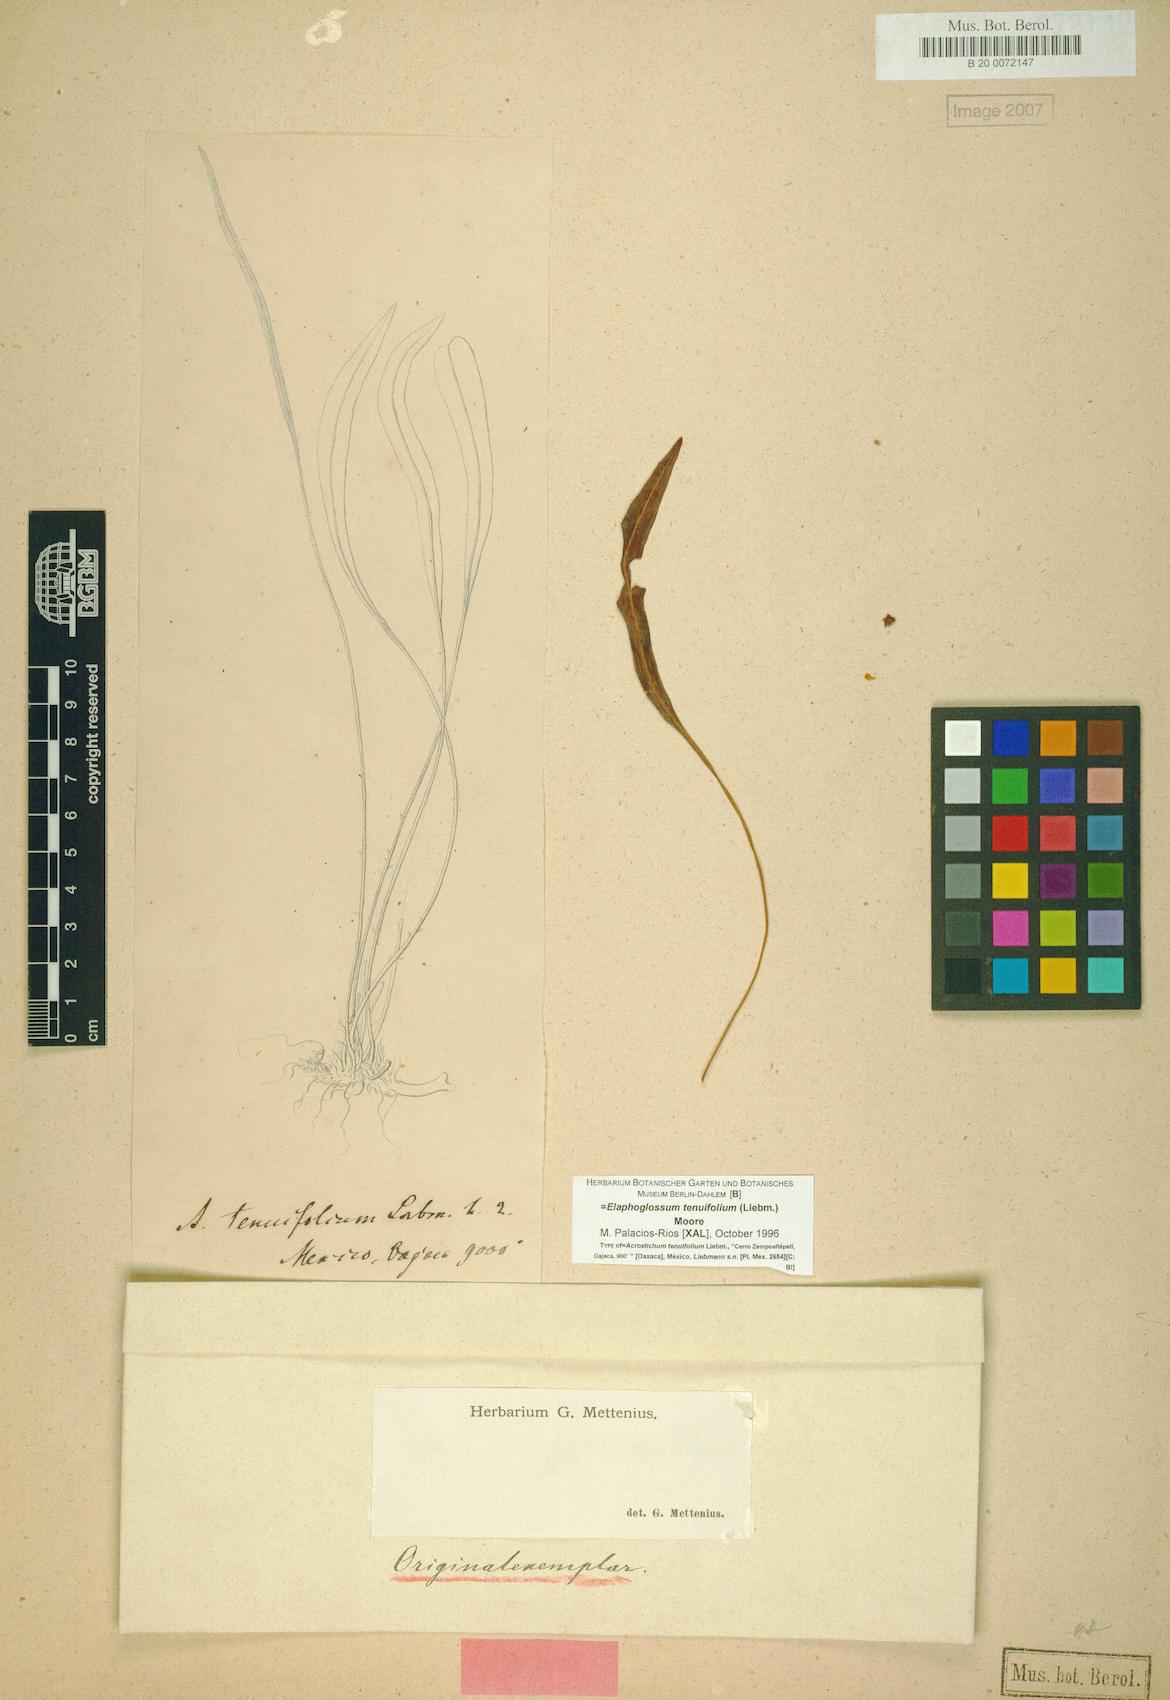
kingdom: Plantae
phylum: Tracheophyta
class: Polypodiopsida
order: Polypodiales
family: Dryopteridaceae
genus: Elaphoglossum
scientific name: Elaphoglossum tenuifolium
